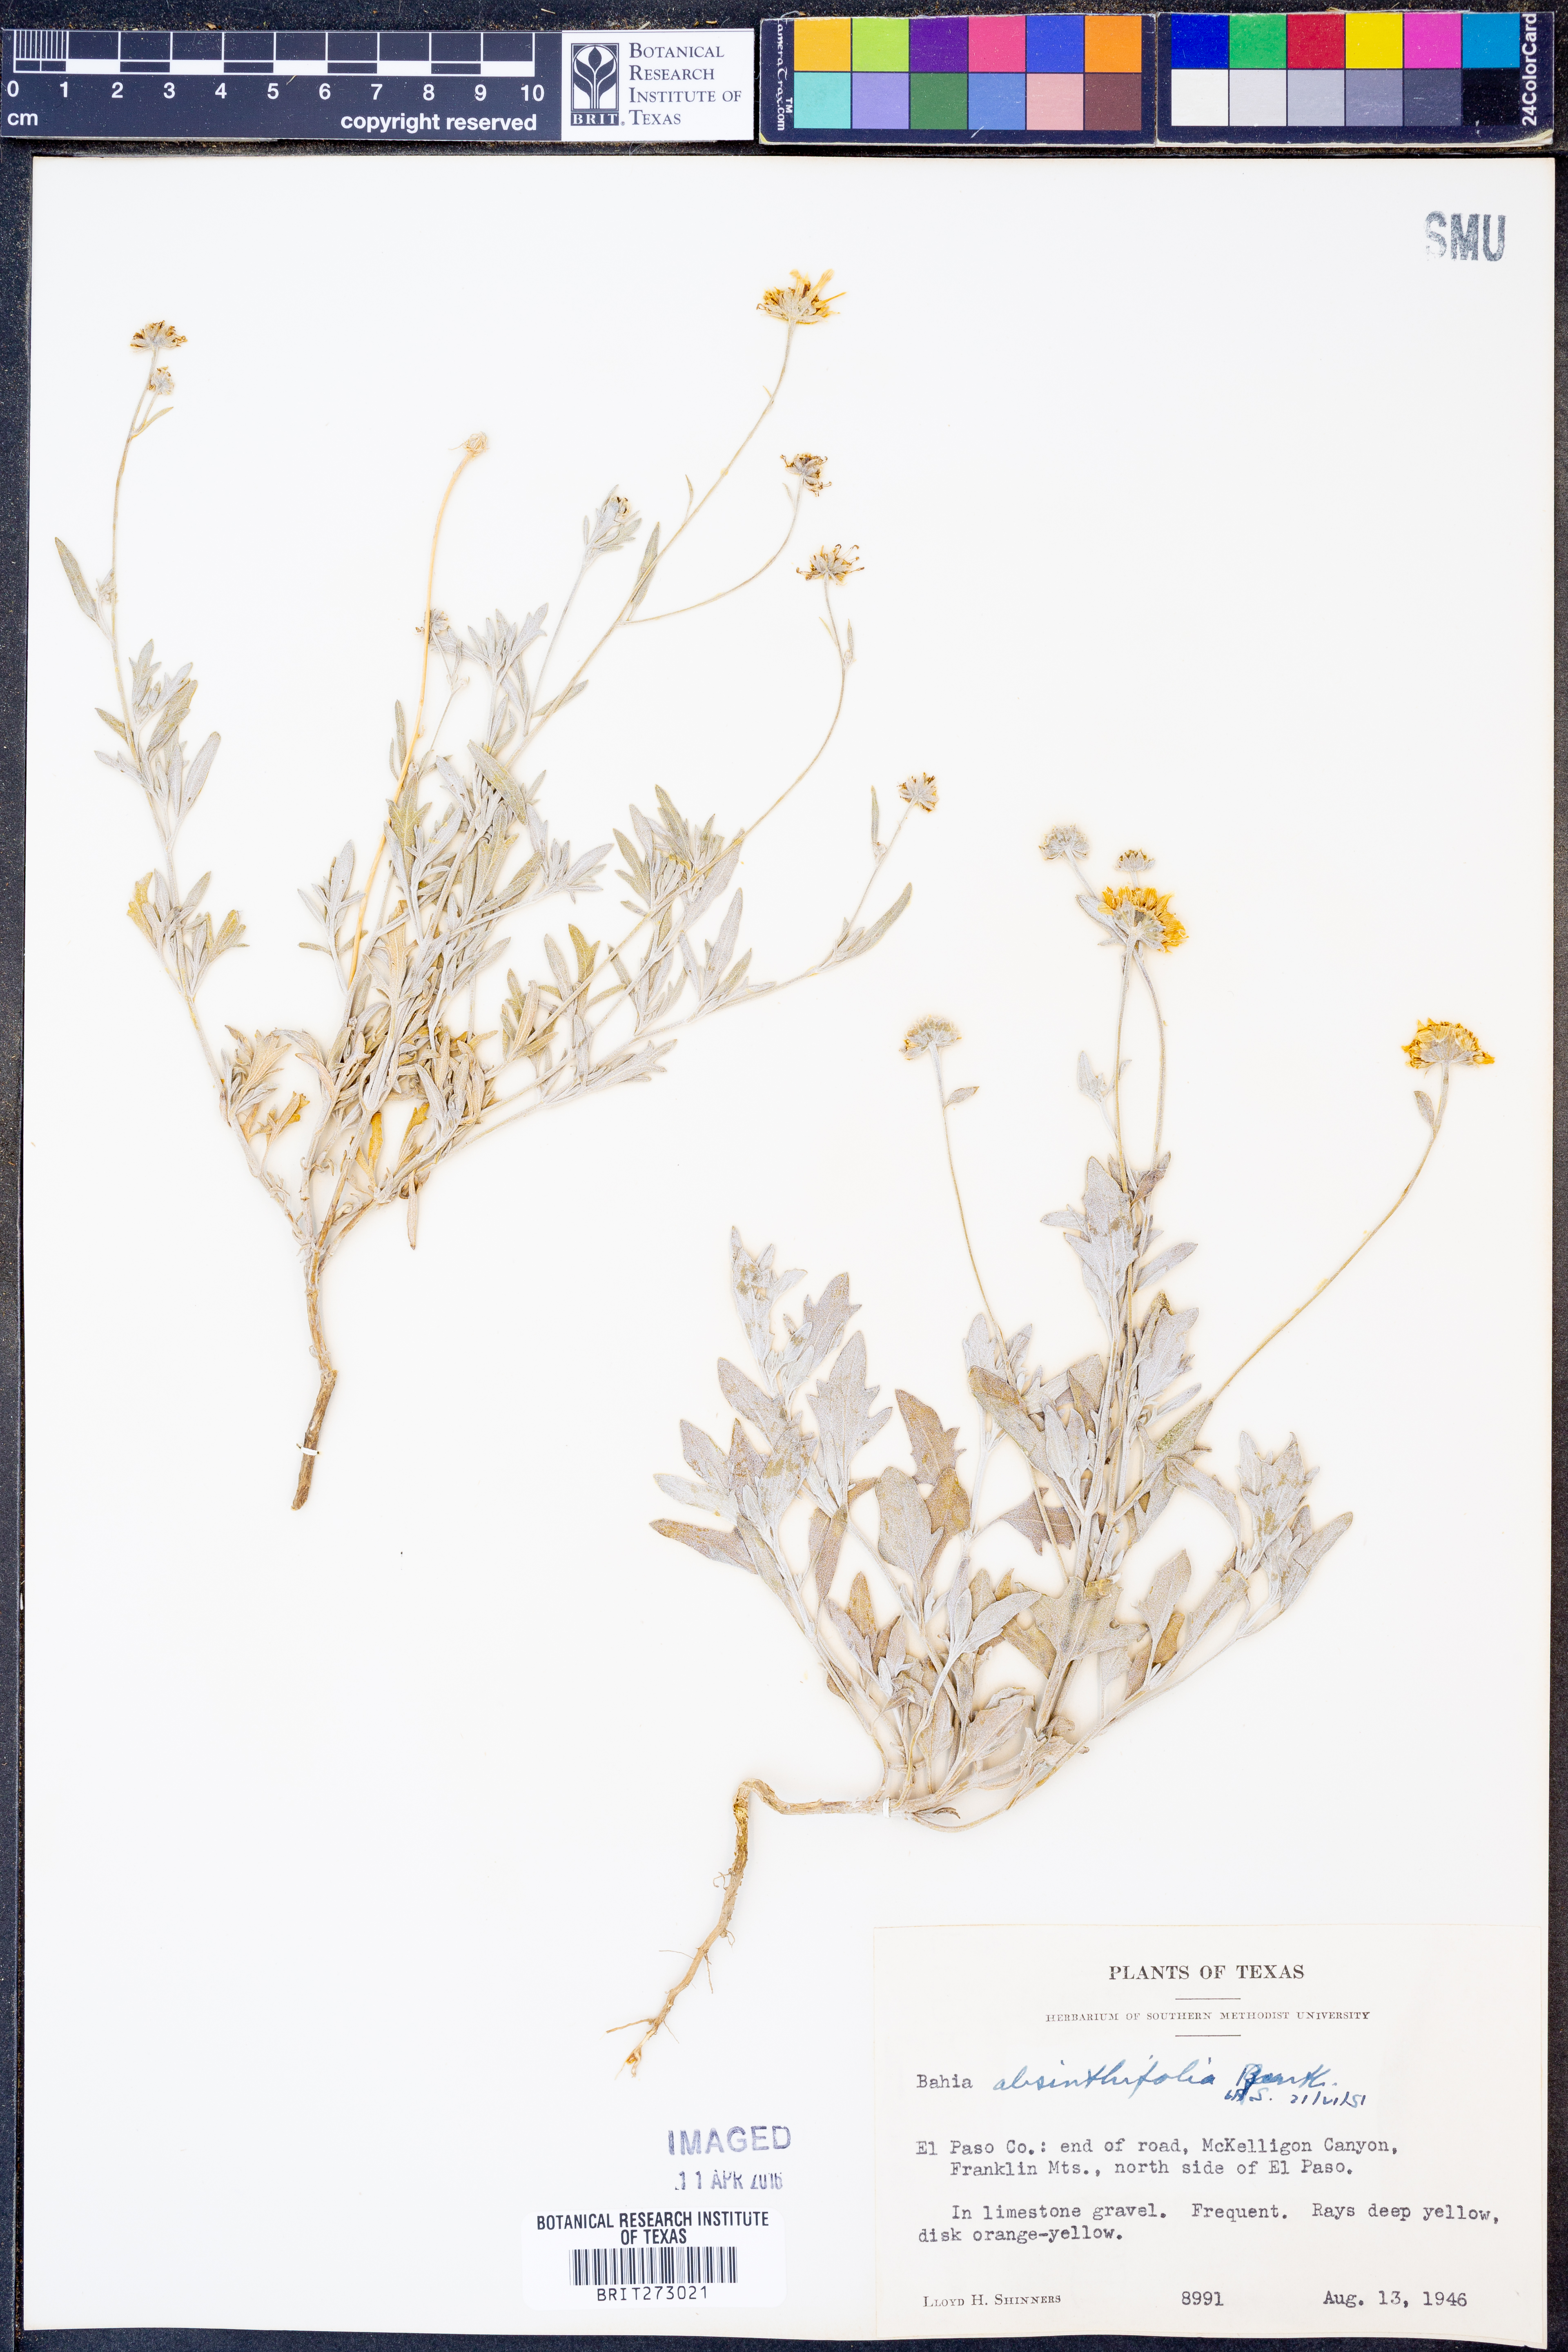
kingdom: Plantae
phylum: Tracheophyta
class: Magnoliopsida
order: Asterales
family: Asteraceae
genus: Picradeniopsis
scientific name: Picradeniopsis absinthifolia
